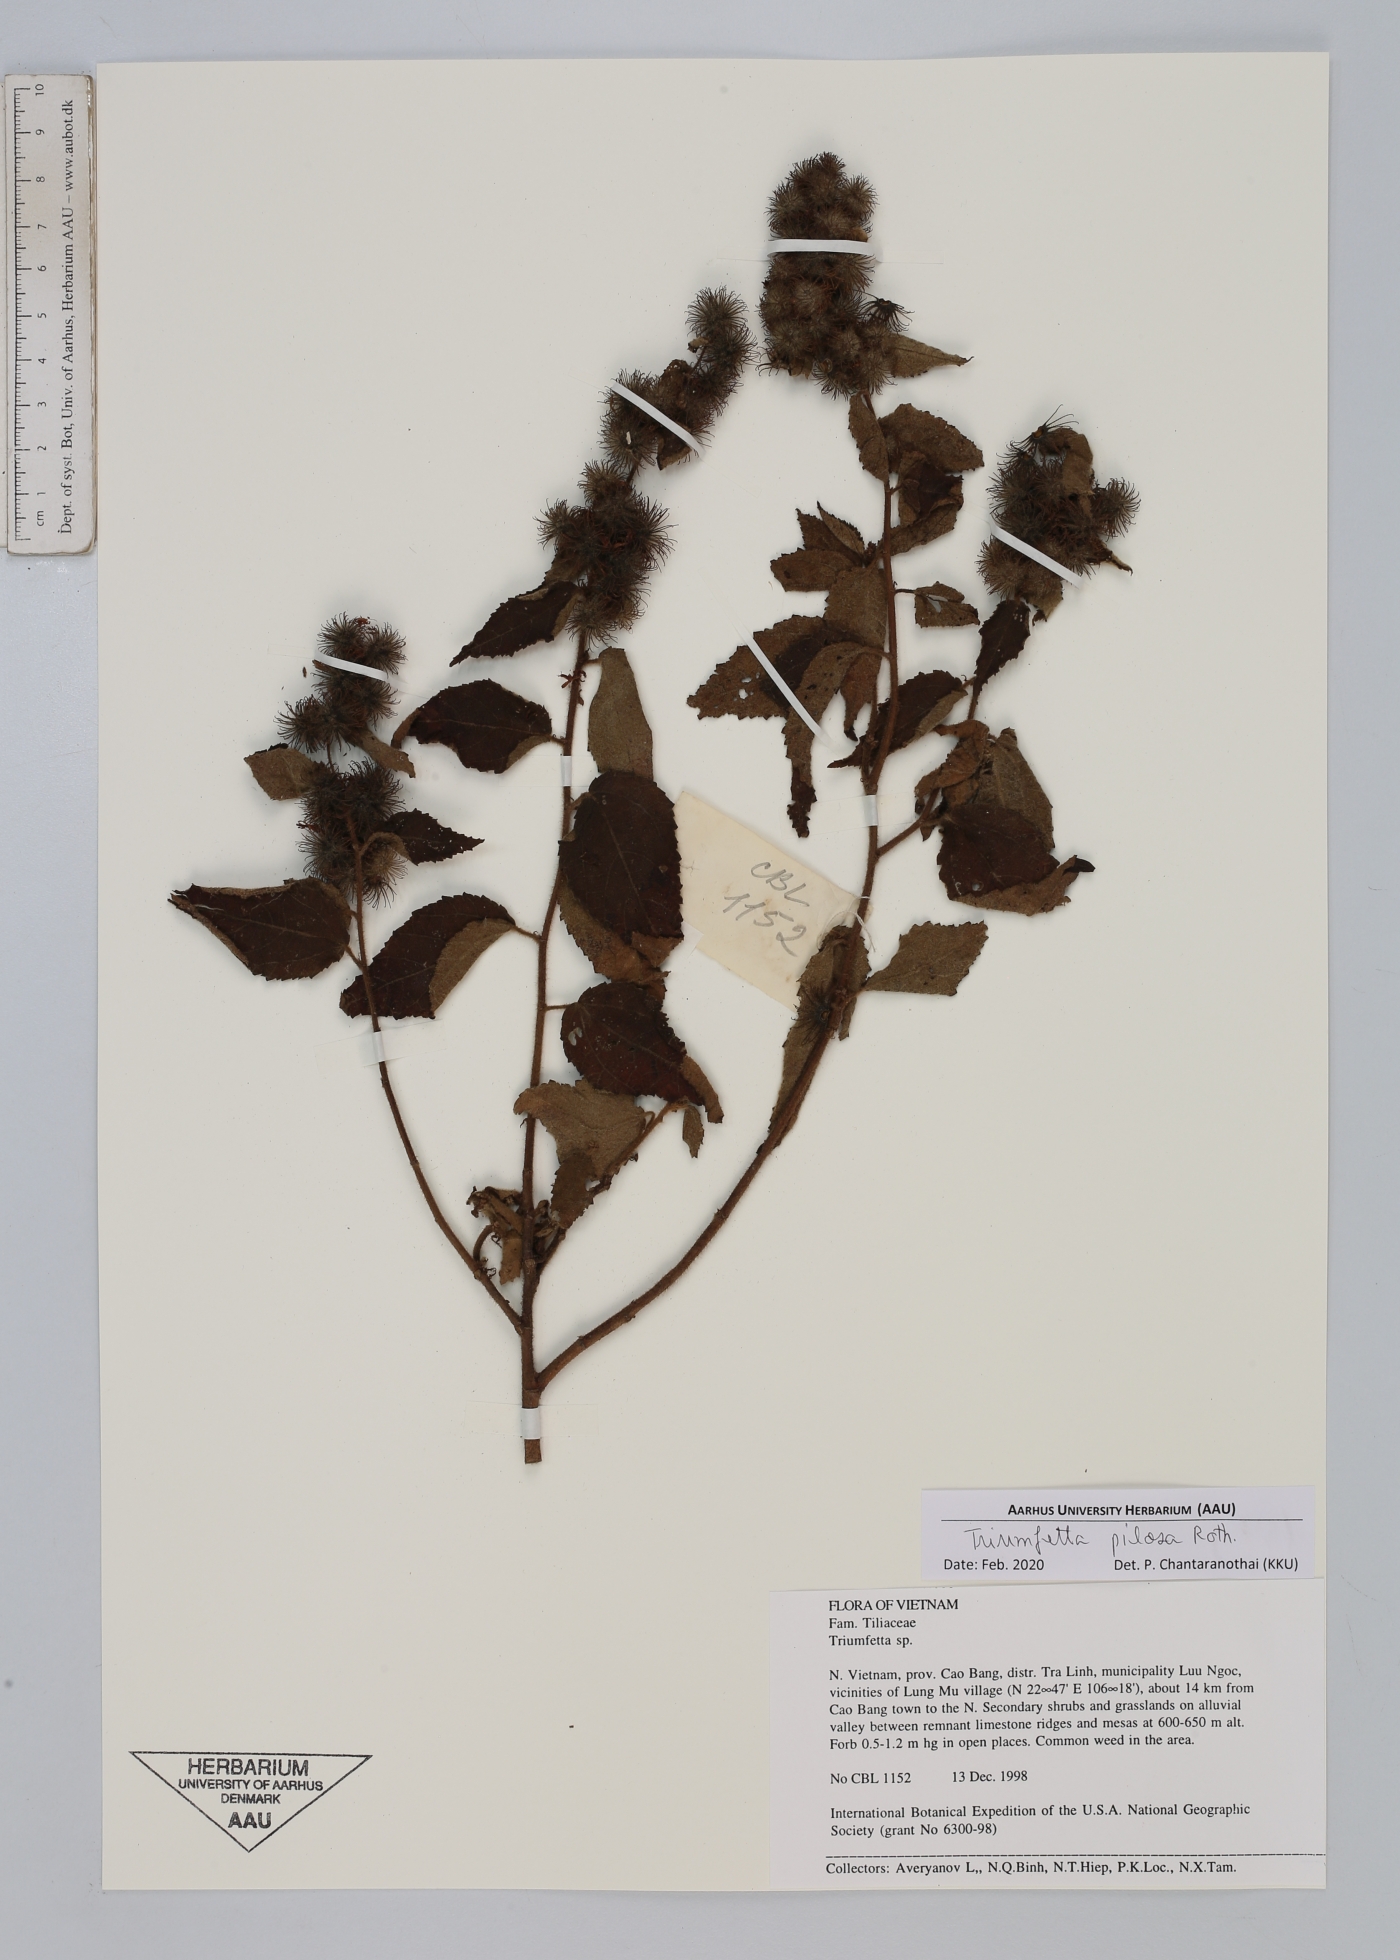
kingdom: Plantae
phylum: Tracheophyta
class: Magnoliopsida
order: Malvales
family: Malvaceae
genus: Triumfetta
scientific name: Triumfetta pilosa
